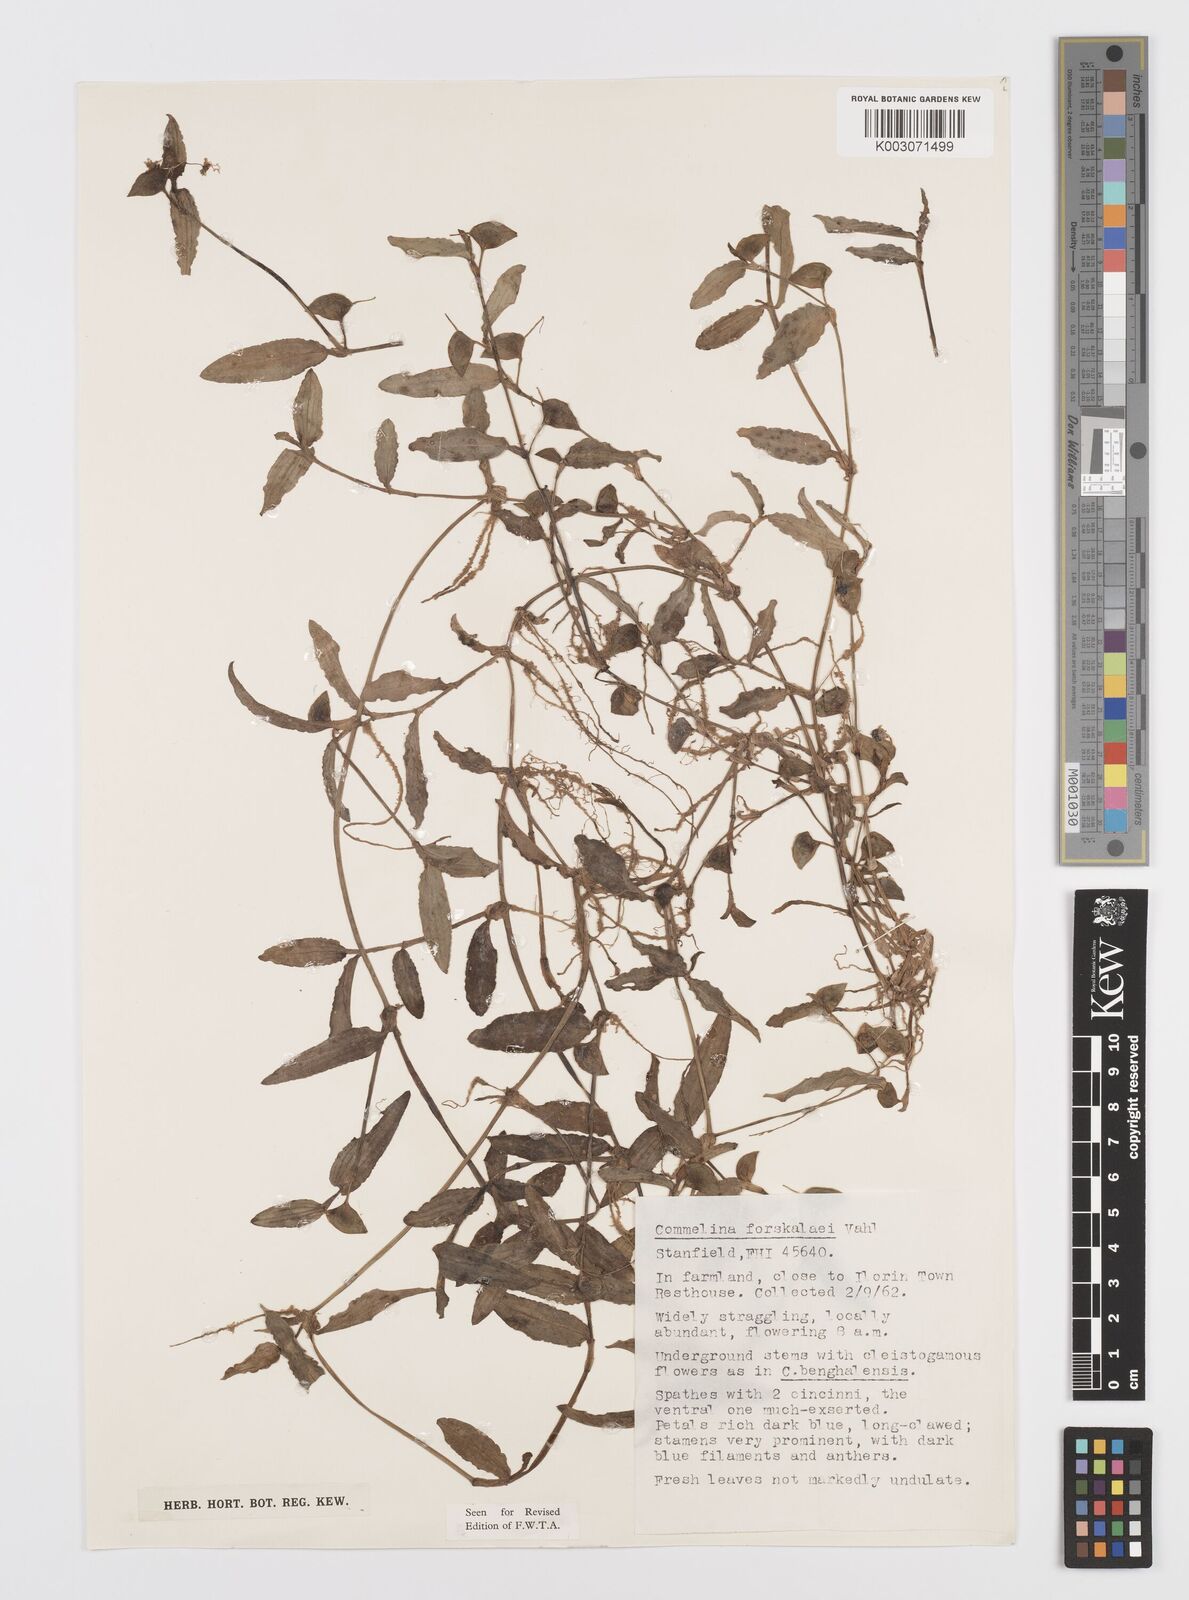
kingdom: Plantae
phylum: Tracheophyta
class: Liliopsida
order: Commelinales
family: Commelinaceae
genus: Commelina
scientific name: Commelina forskaolii
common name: Rat's ear
